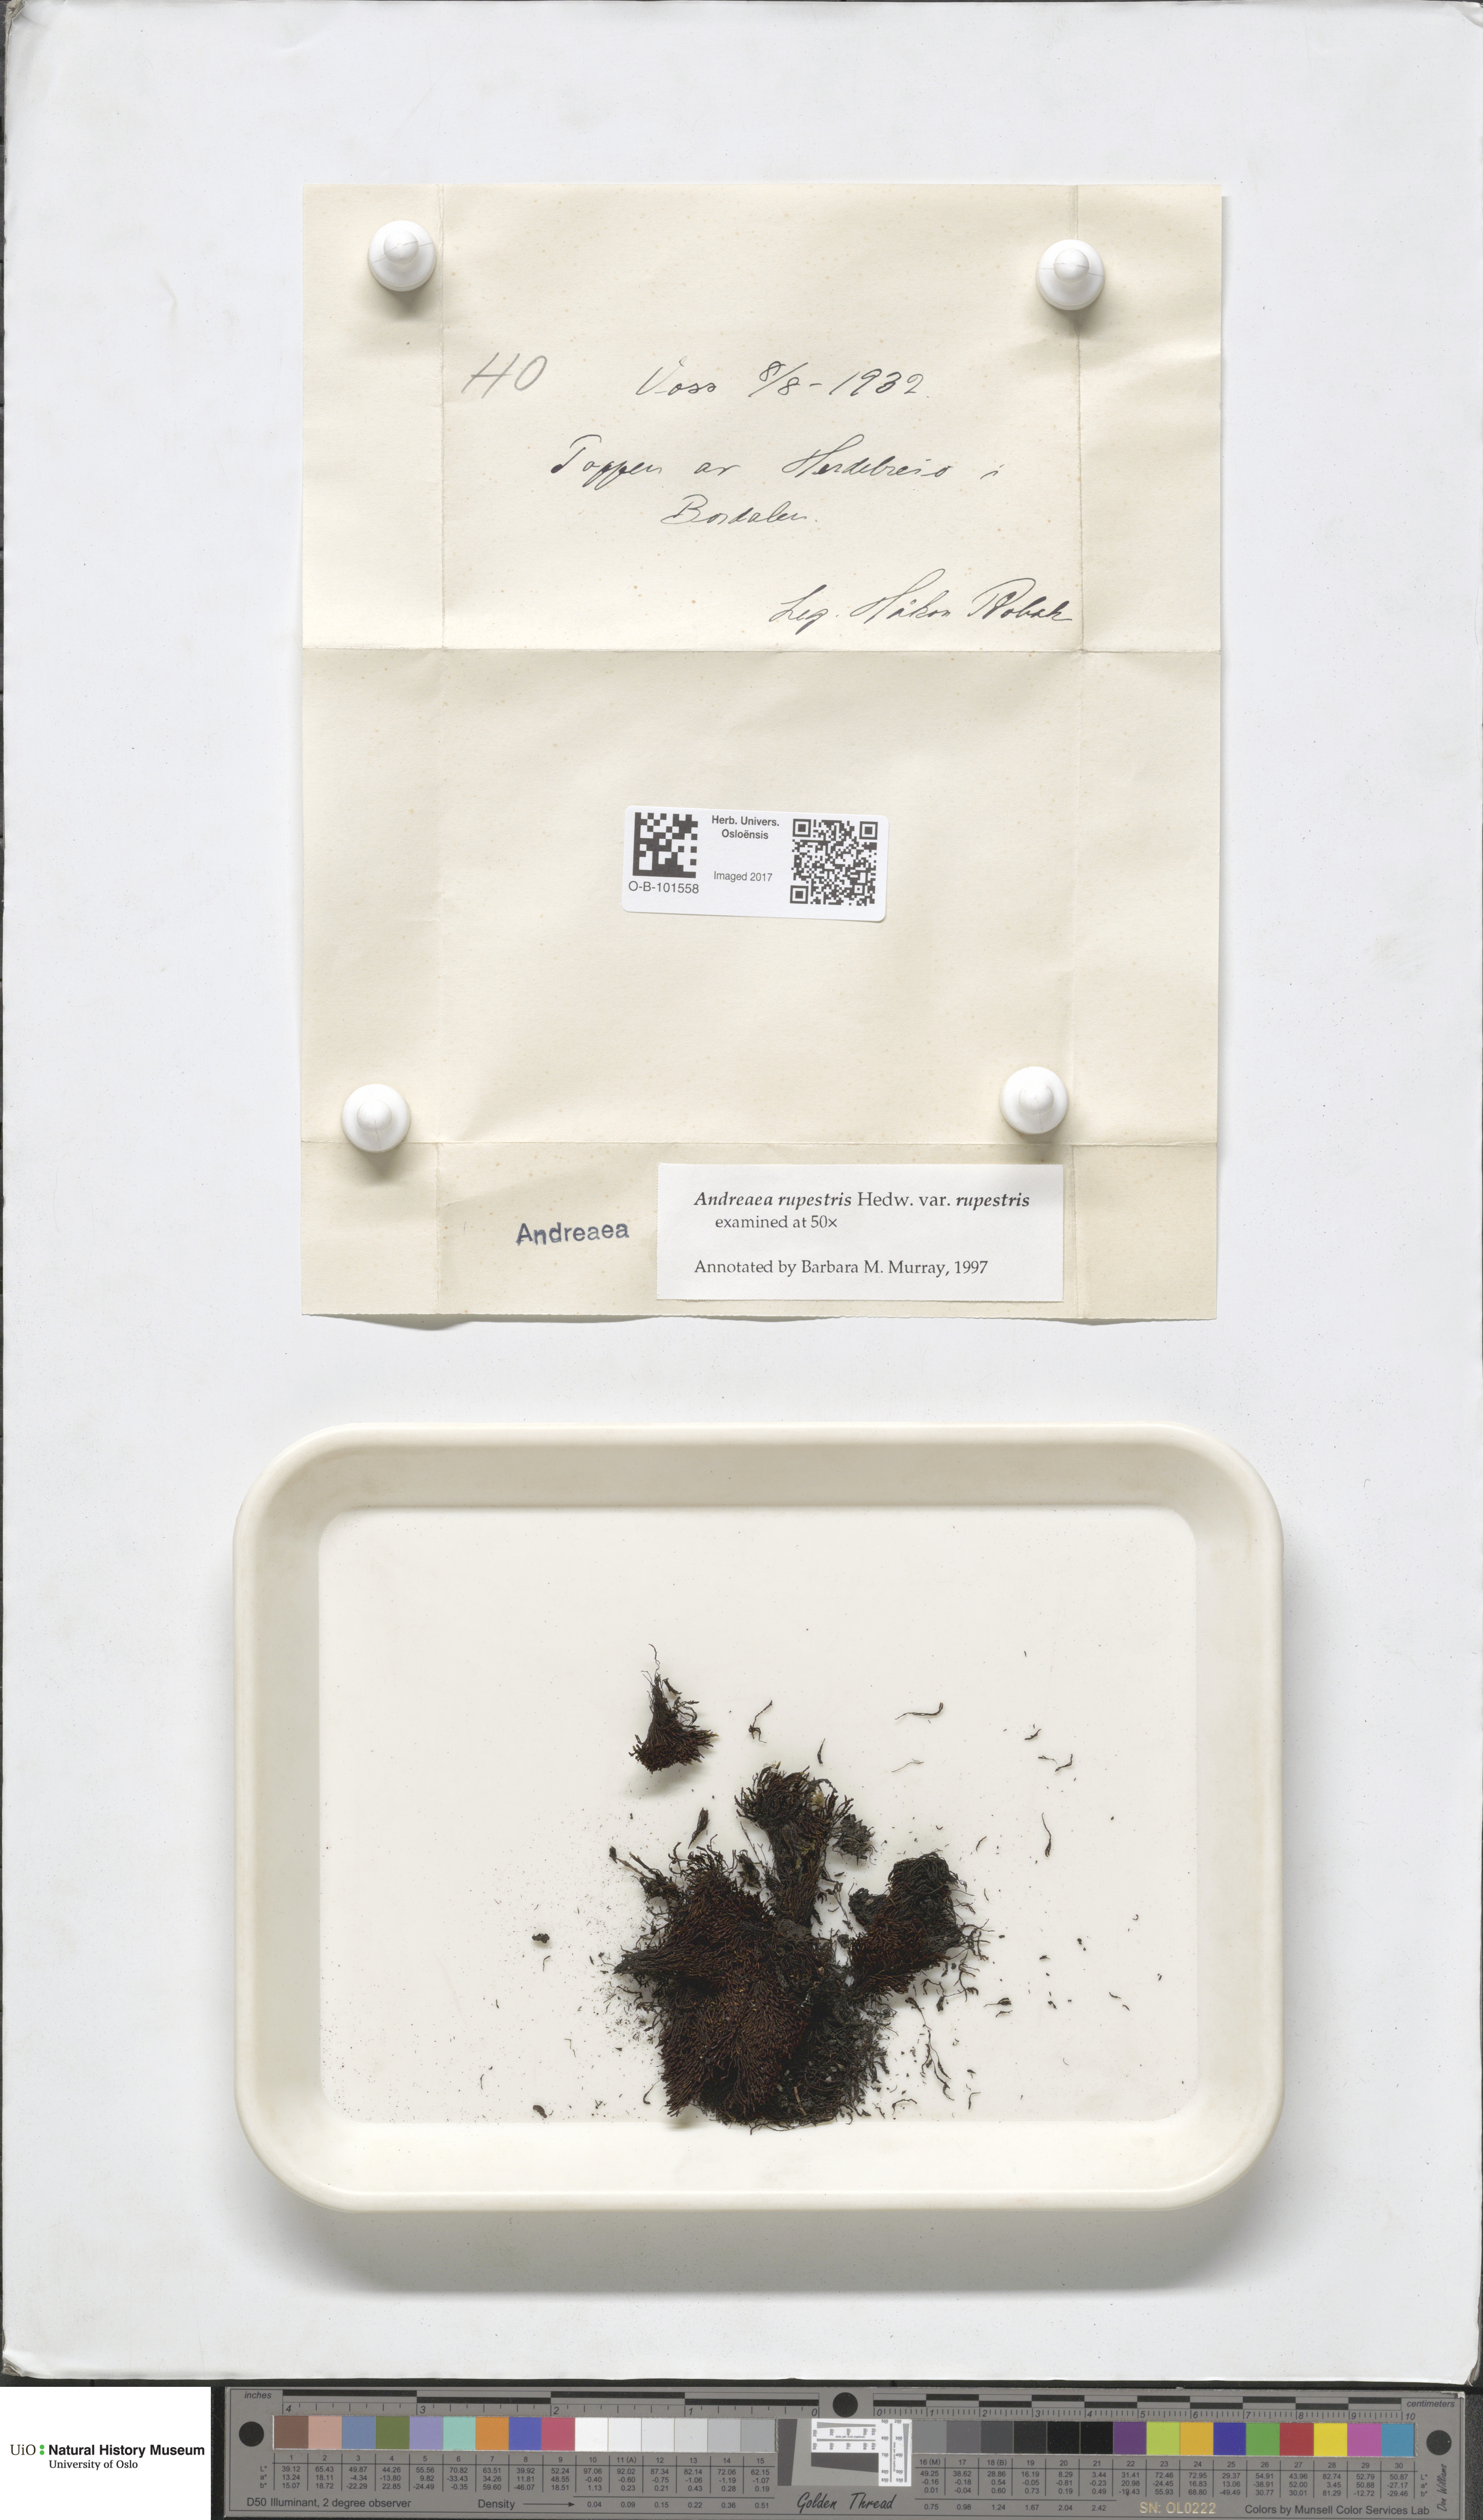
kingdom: Plantae
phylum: Bryophyta
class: Andreaeopsida
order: Andreaeales
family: Andreaeaceae
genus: Andreaea
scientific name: Andreaea rupestris
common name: Black rock moss
